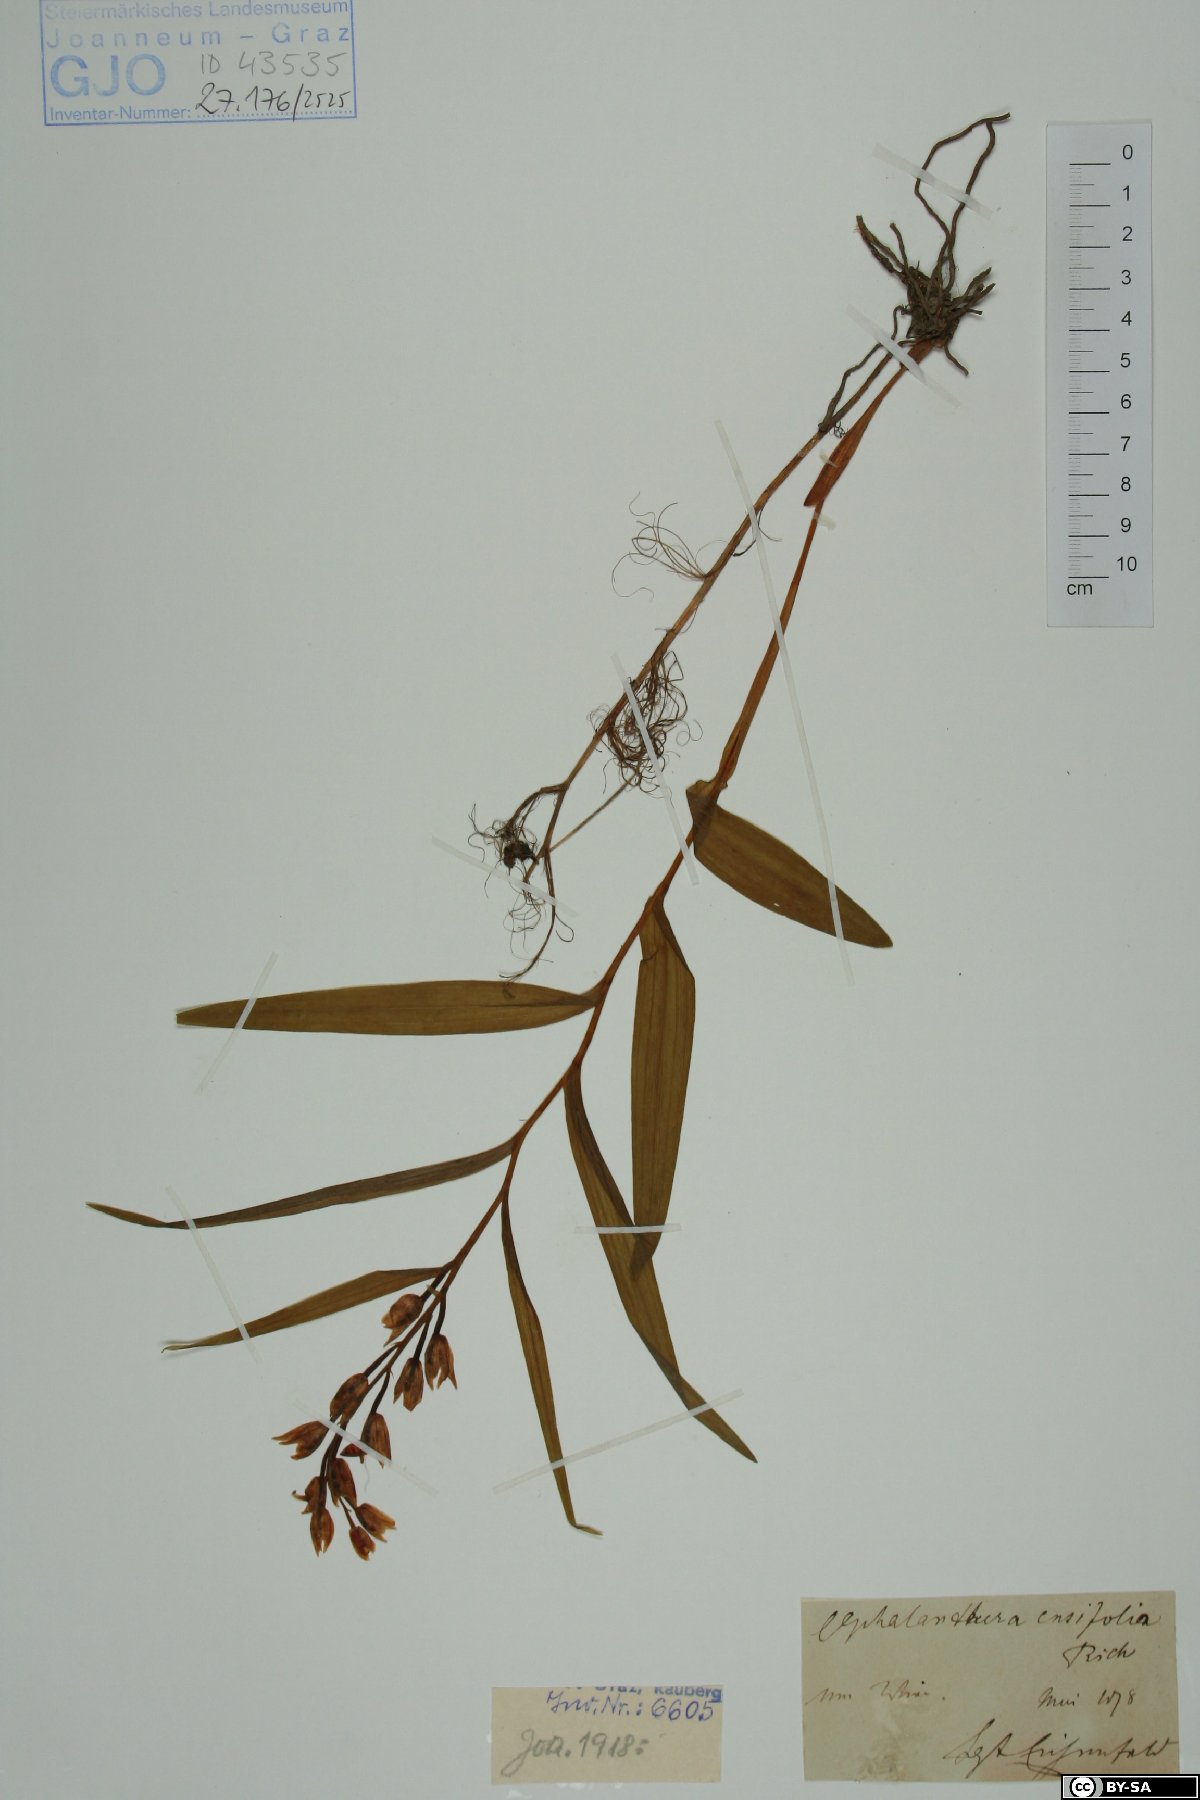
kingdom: Plantae
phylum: Tracheophyta
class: Liliopsida
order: Asparagales
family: Orchidaceae
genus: Cephalanthera
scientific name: Cephalanthera longifolia
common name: Narrow-leaved helleborine
